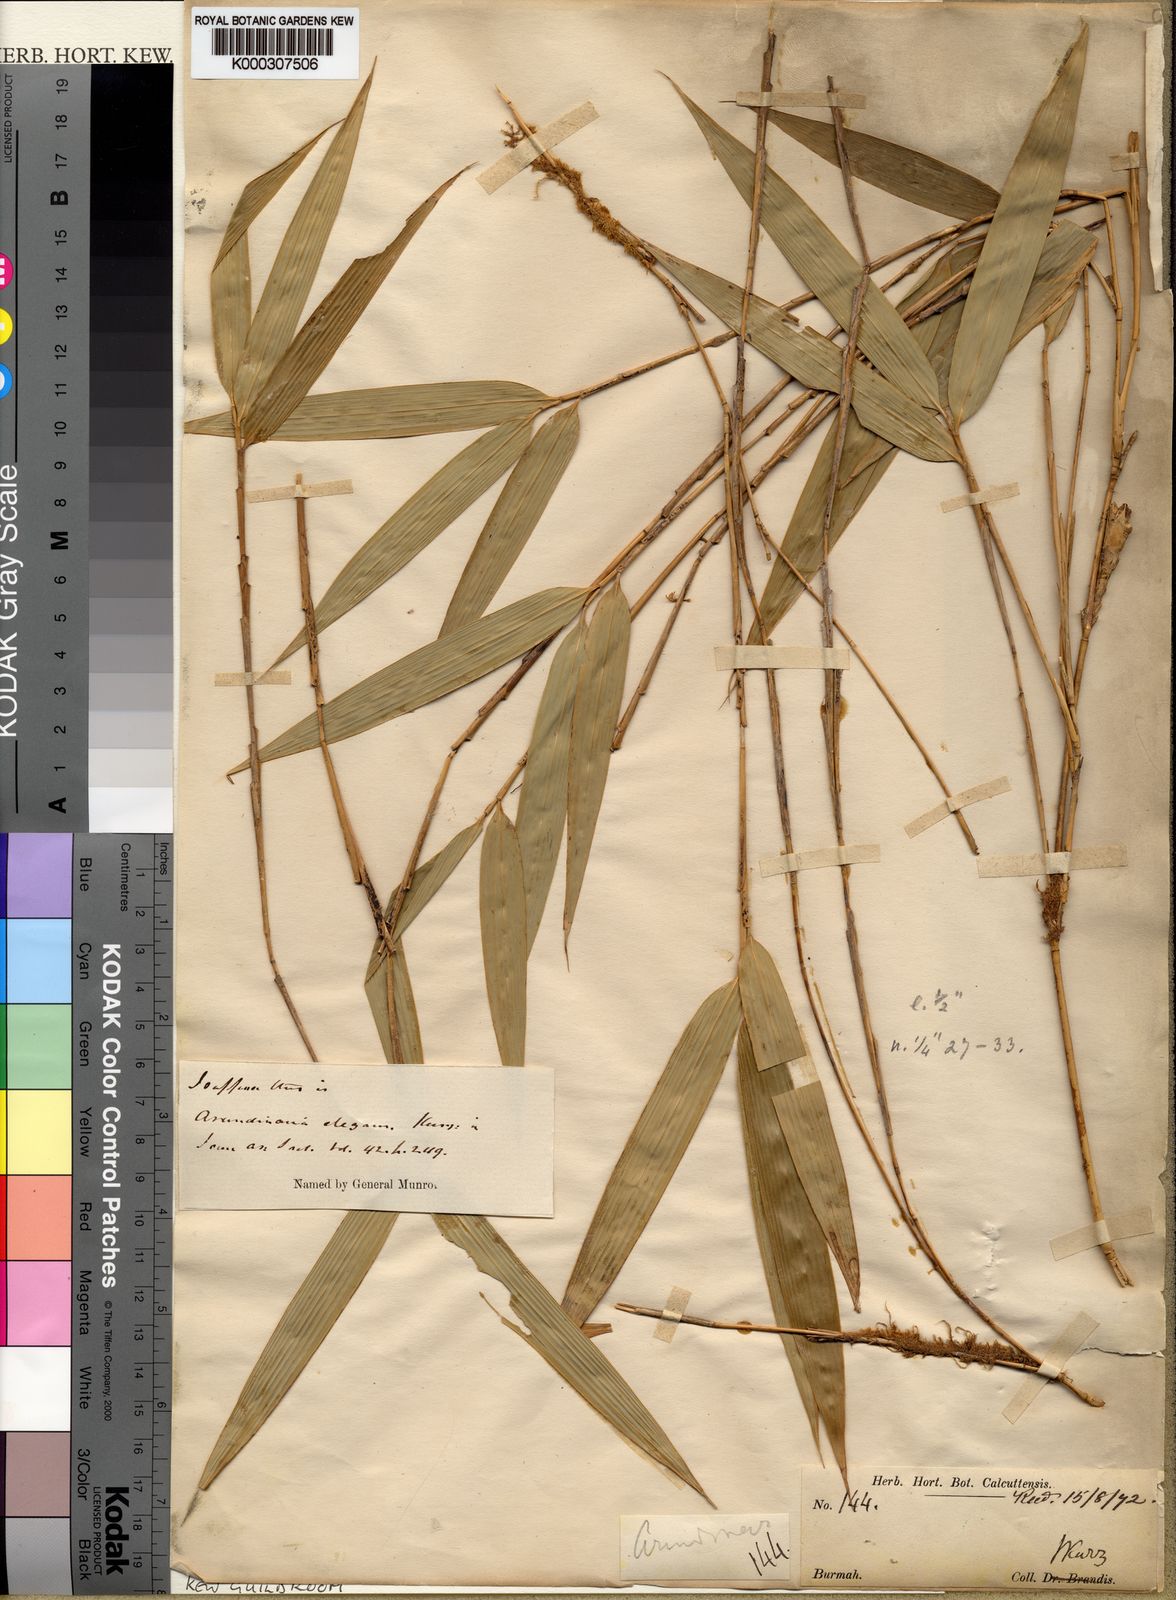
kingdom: Plantae
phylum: Tracheophyta
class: Liliopsida
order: Poales
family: Poaceae
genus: Yushania
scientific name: Yushania elegans
